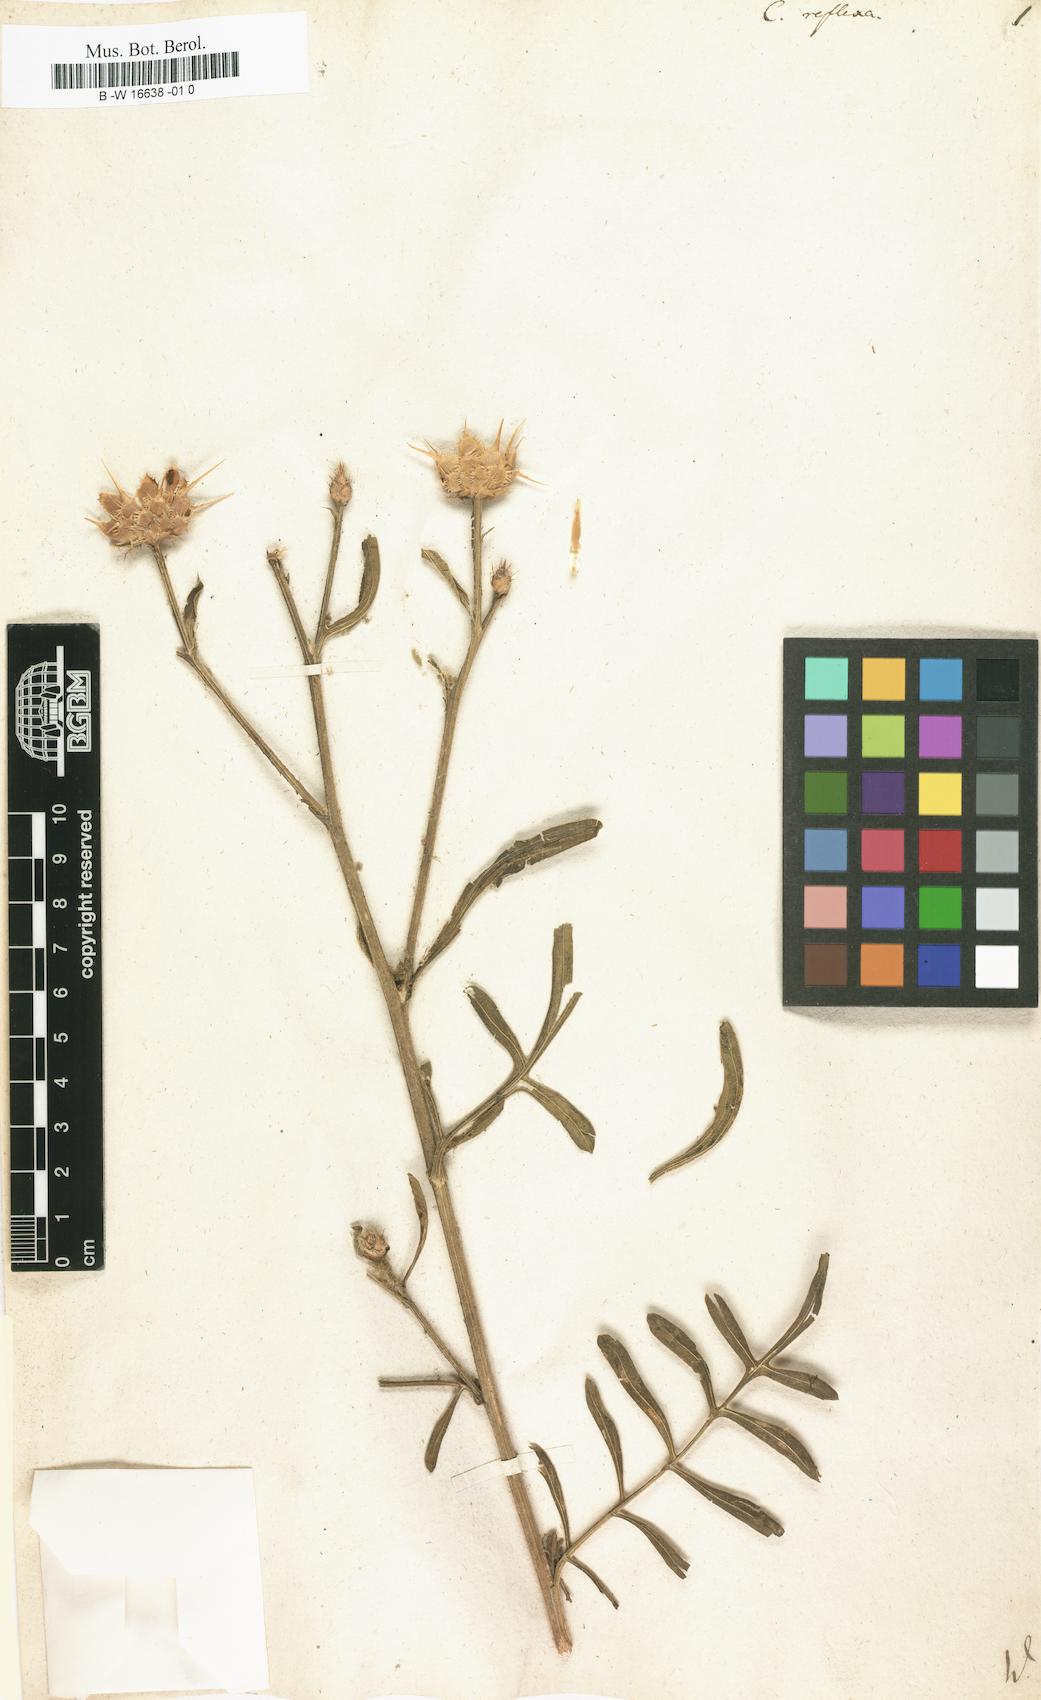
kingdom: Plantae
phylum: Tracheophyta
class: Magnoliopsida
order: Asterales
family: Asteraceae
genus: Centaurea
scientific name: Centaurea reflexa
